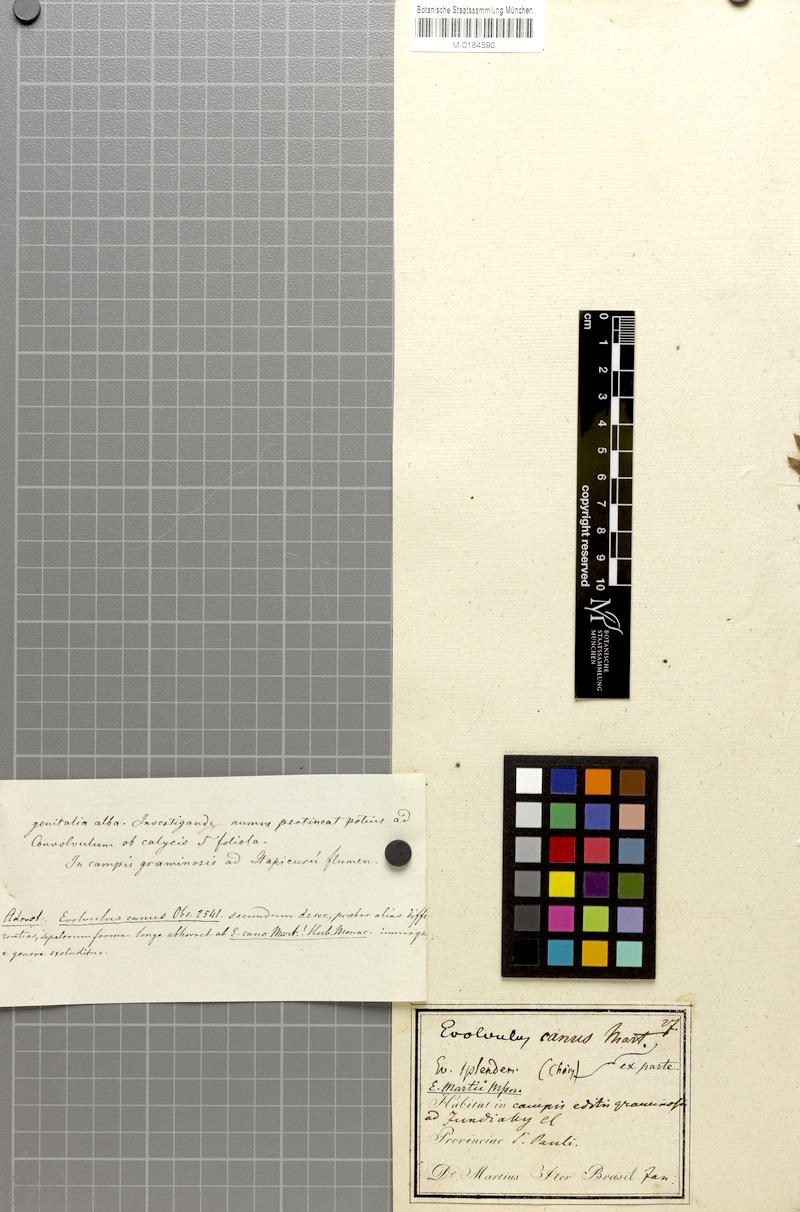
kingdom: Plantae
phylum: Tracheophyta
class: Magnoliopsida
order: Solanales
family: Convolvulaceae
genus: Evolvulus
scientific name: Evolvulus
